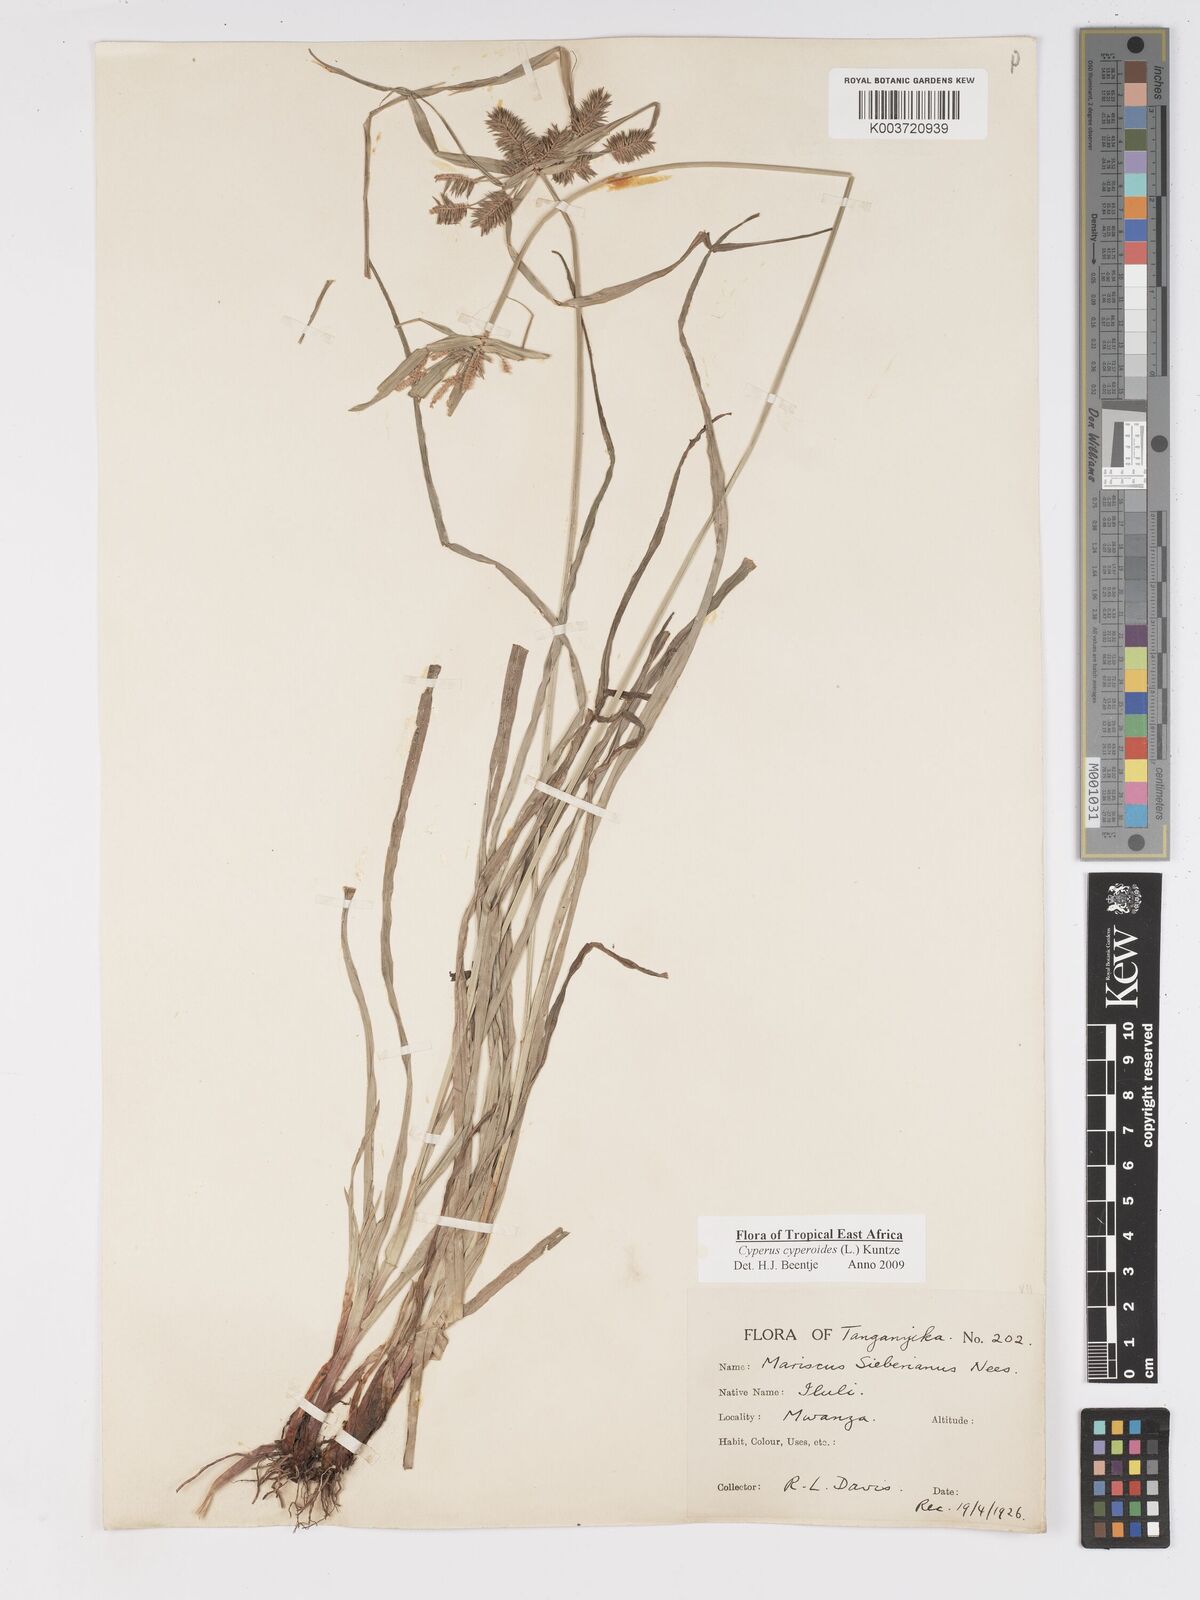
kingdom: Plantae
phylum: Tracheophyta
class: Liliopsida
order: Poales
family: Cyperaceae
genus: Cyperus
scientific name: Cyperus macrocarpus
